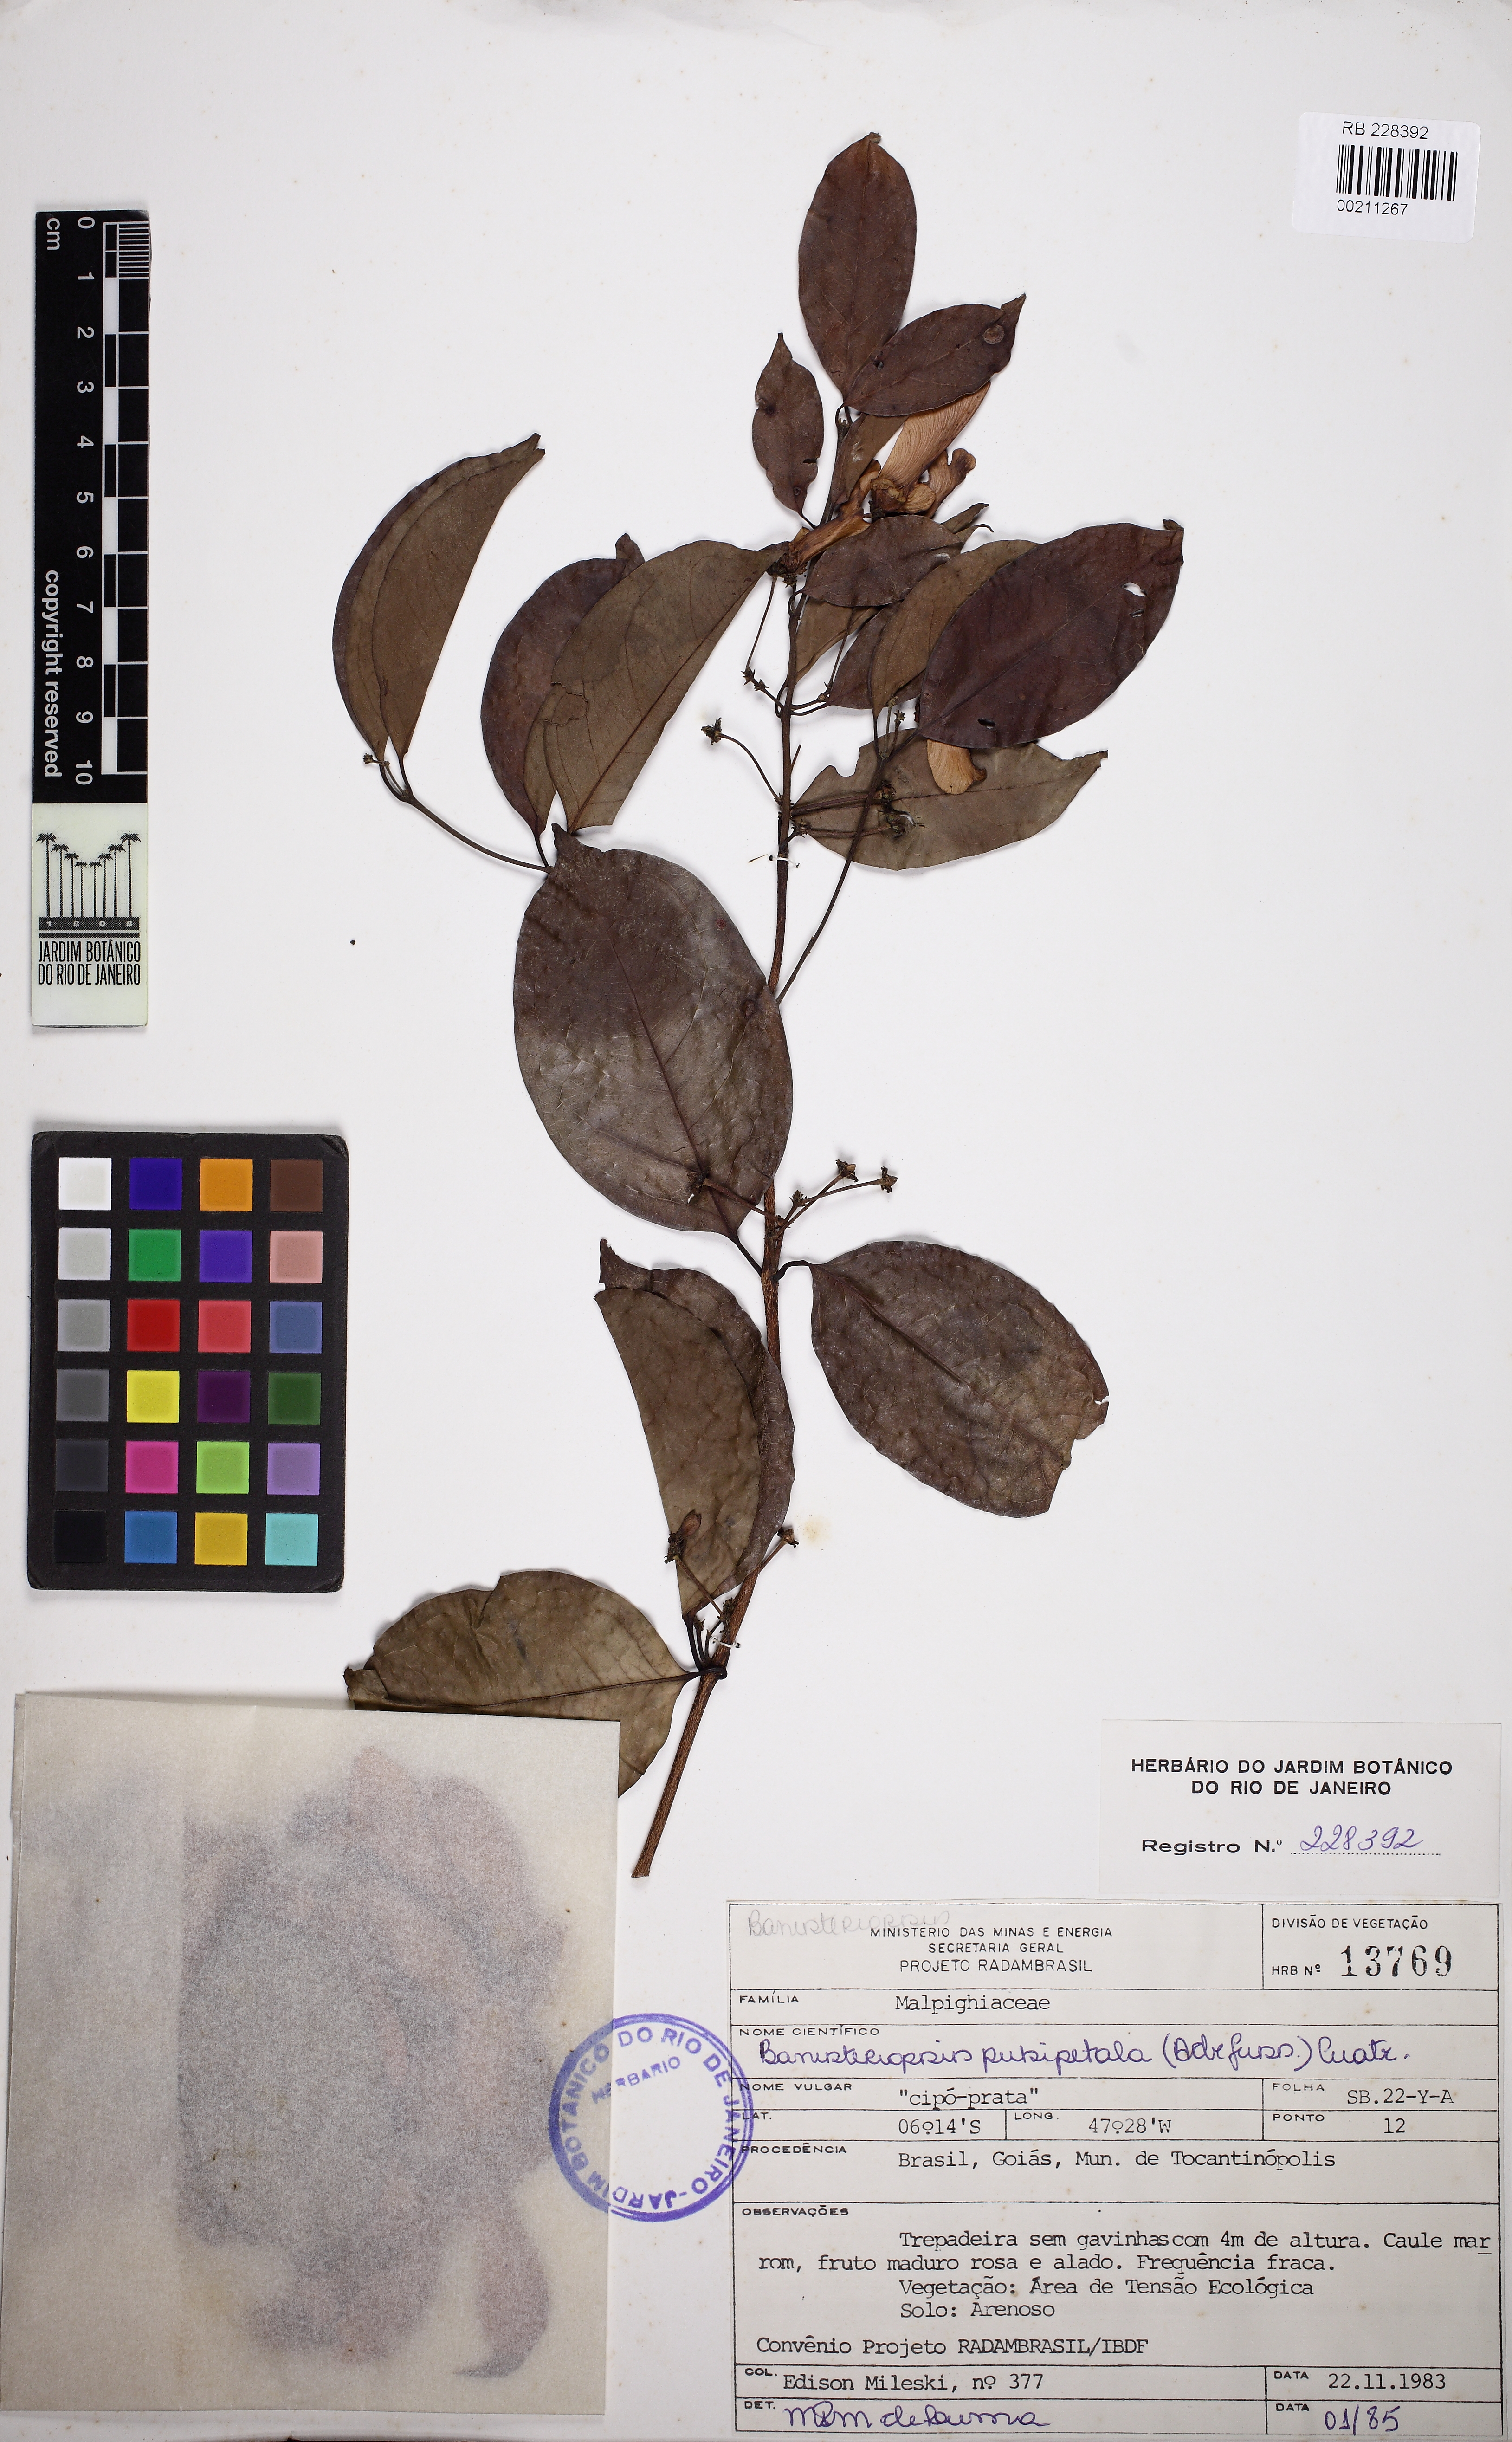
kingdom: Plantae
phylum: Tracheophyta
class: Magnoliopsida
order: Malpighiales
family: Malpighiaceae
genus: Diplopterys
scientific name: Diplopterys pubipetala
